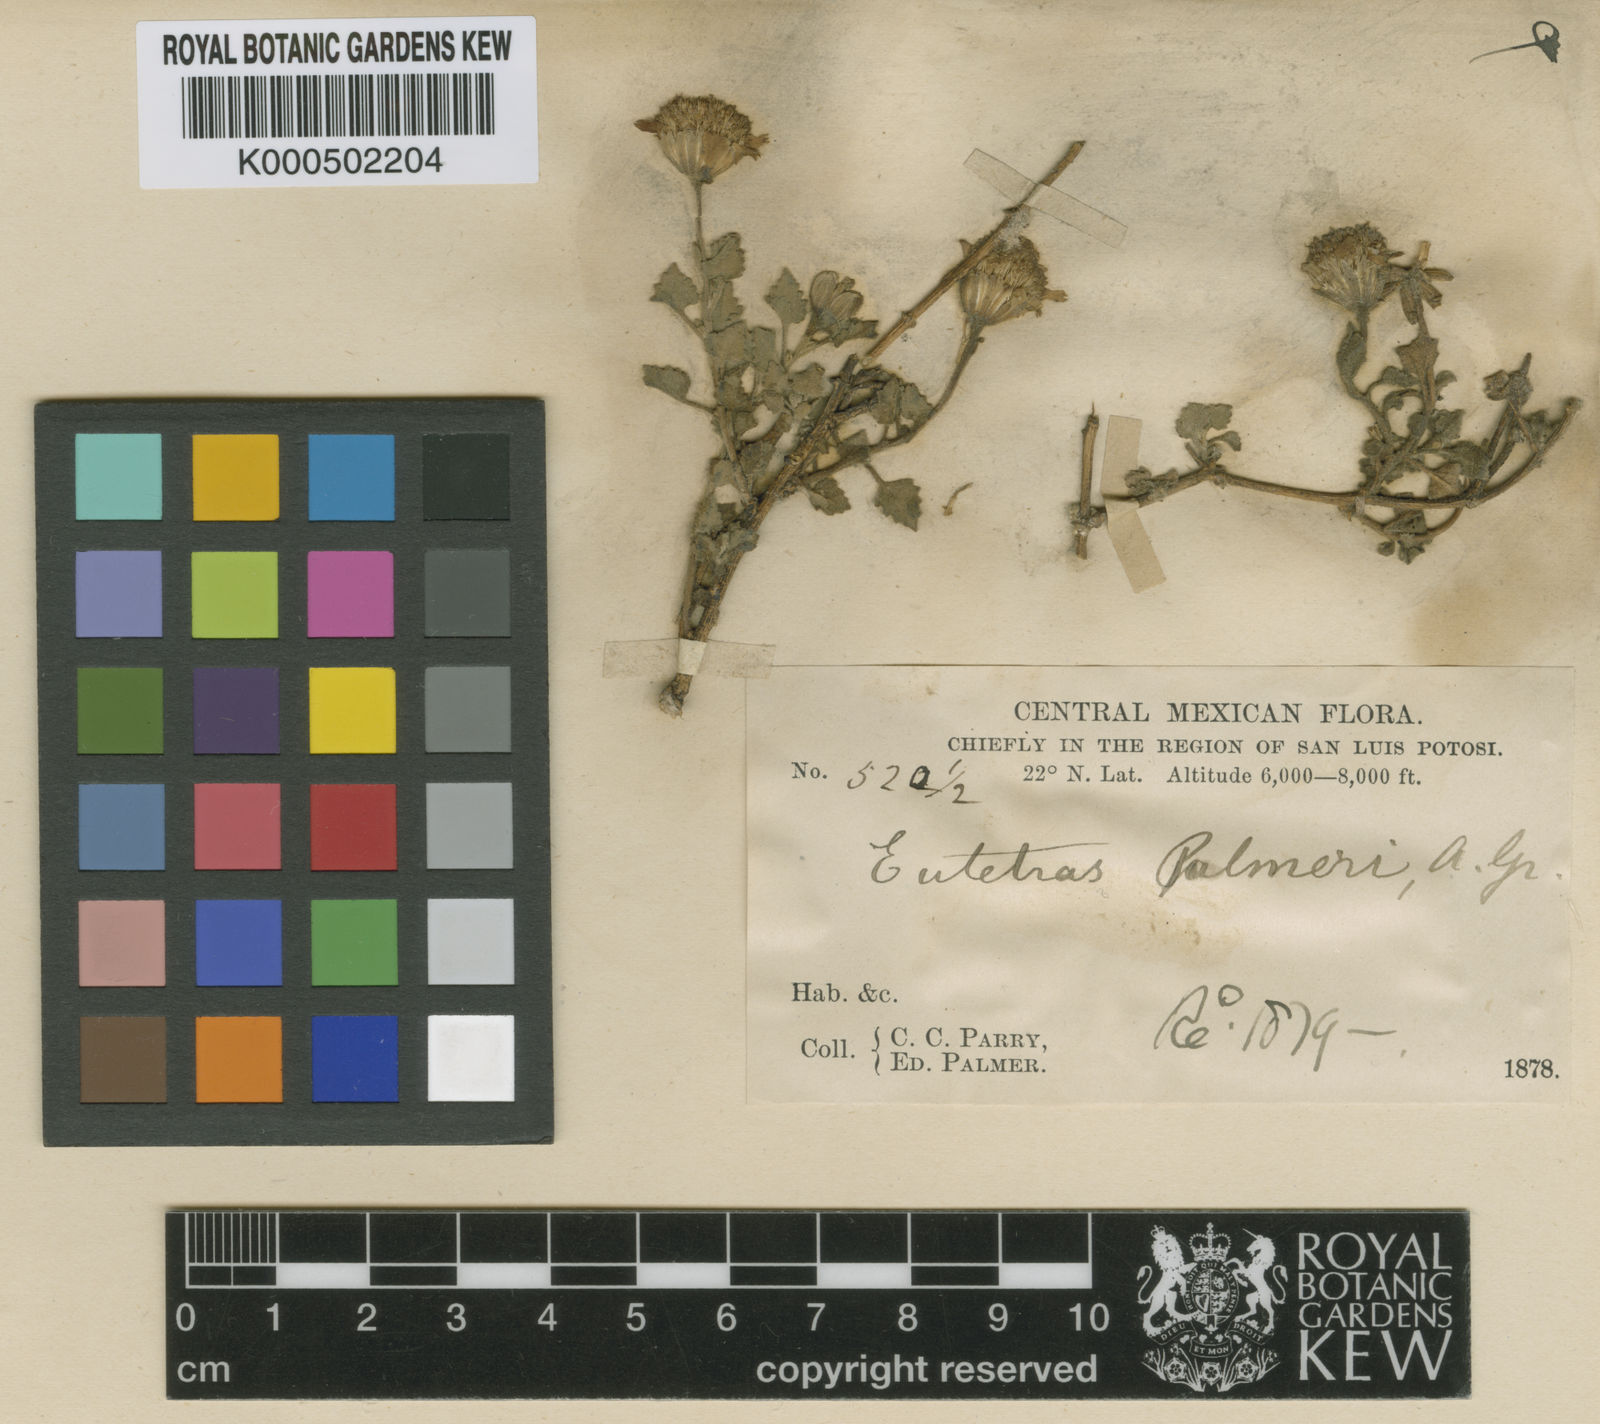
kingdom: Plantae
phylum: Tracheophyta
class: Magnoliopsida
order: Asterales
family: Asteraceae
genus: Eutetras
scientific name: Eutetras palmeri
